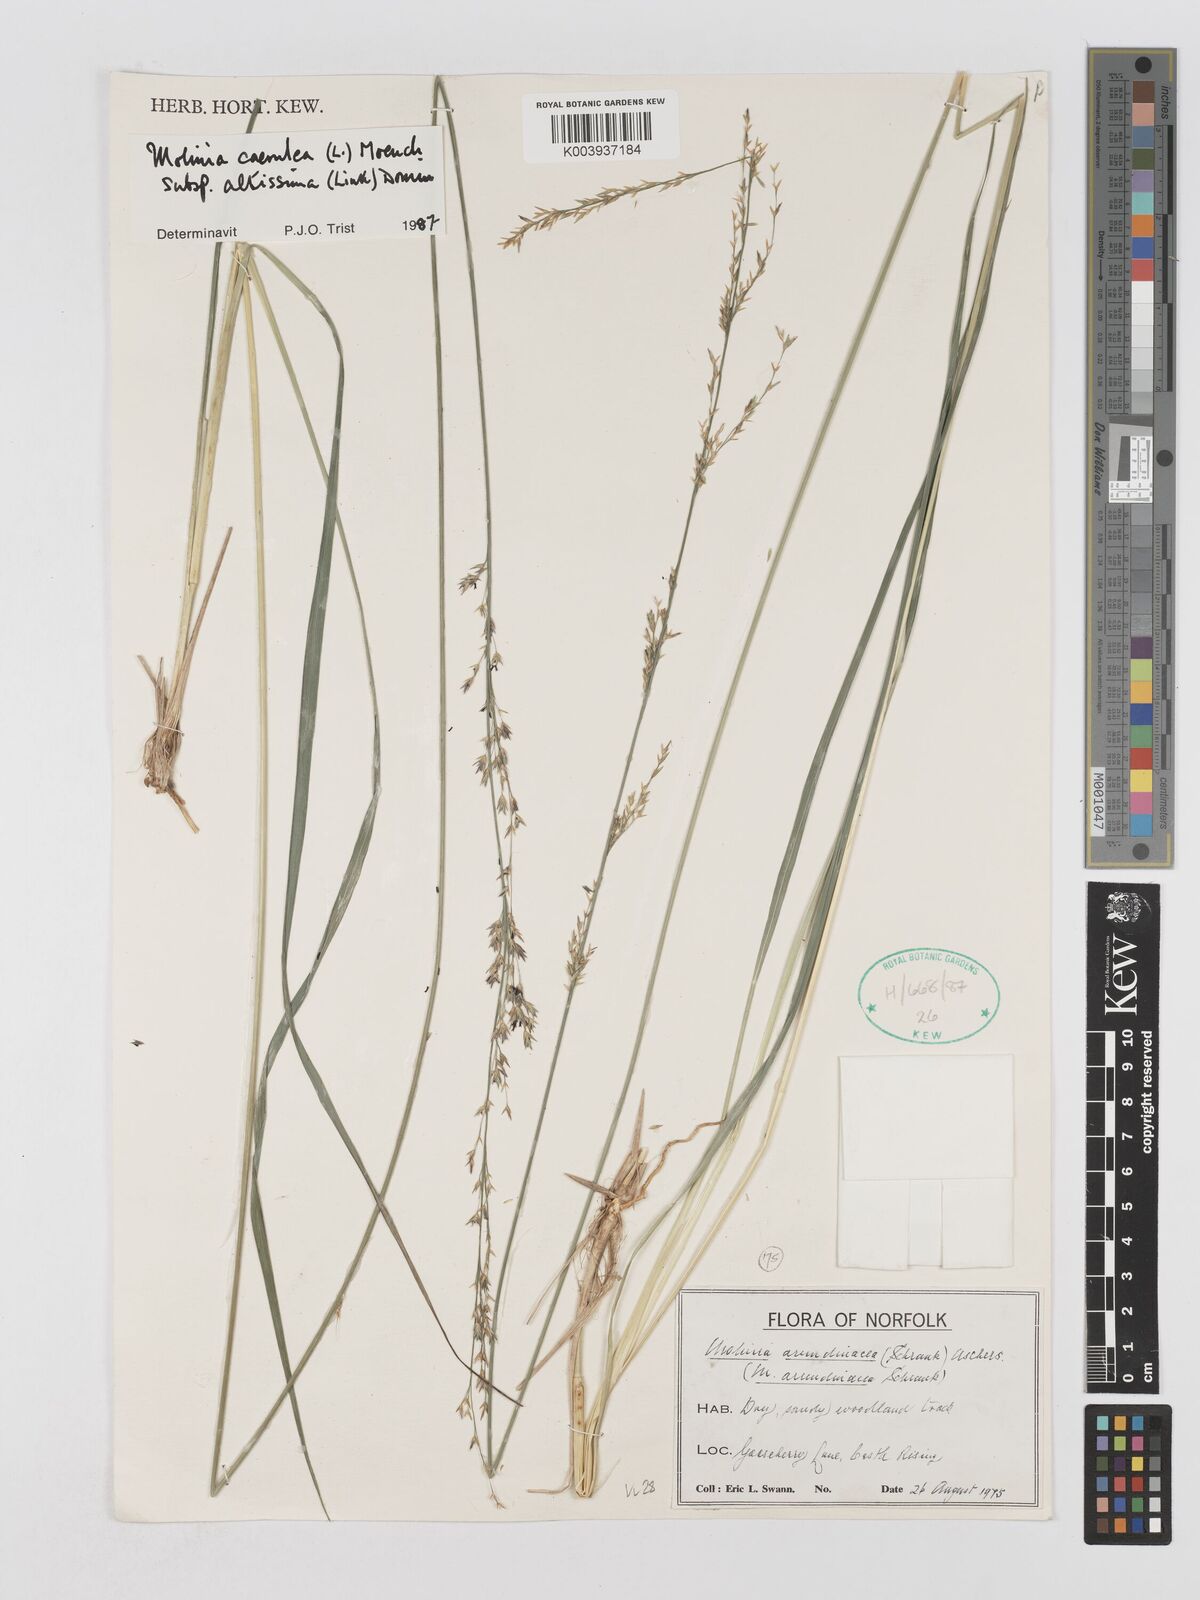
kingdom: Plantae
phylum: Tracheophyta
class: Liliopsida
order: Poales
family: Poaceae
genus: Molinia
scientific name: Molinia caerulea
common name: Purple moor-grass
